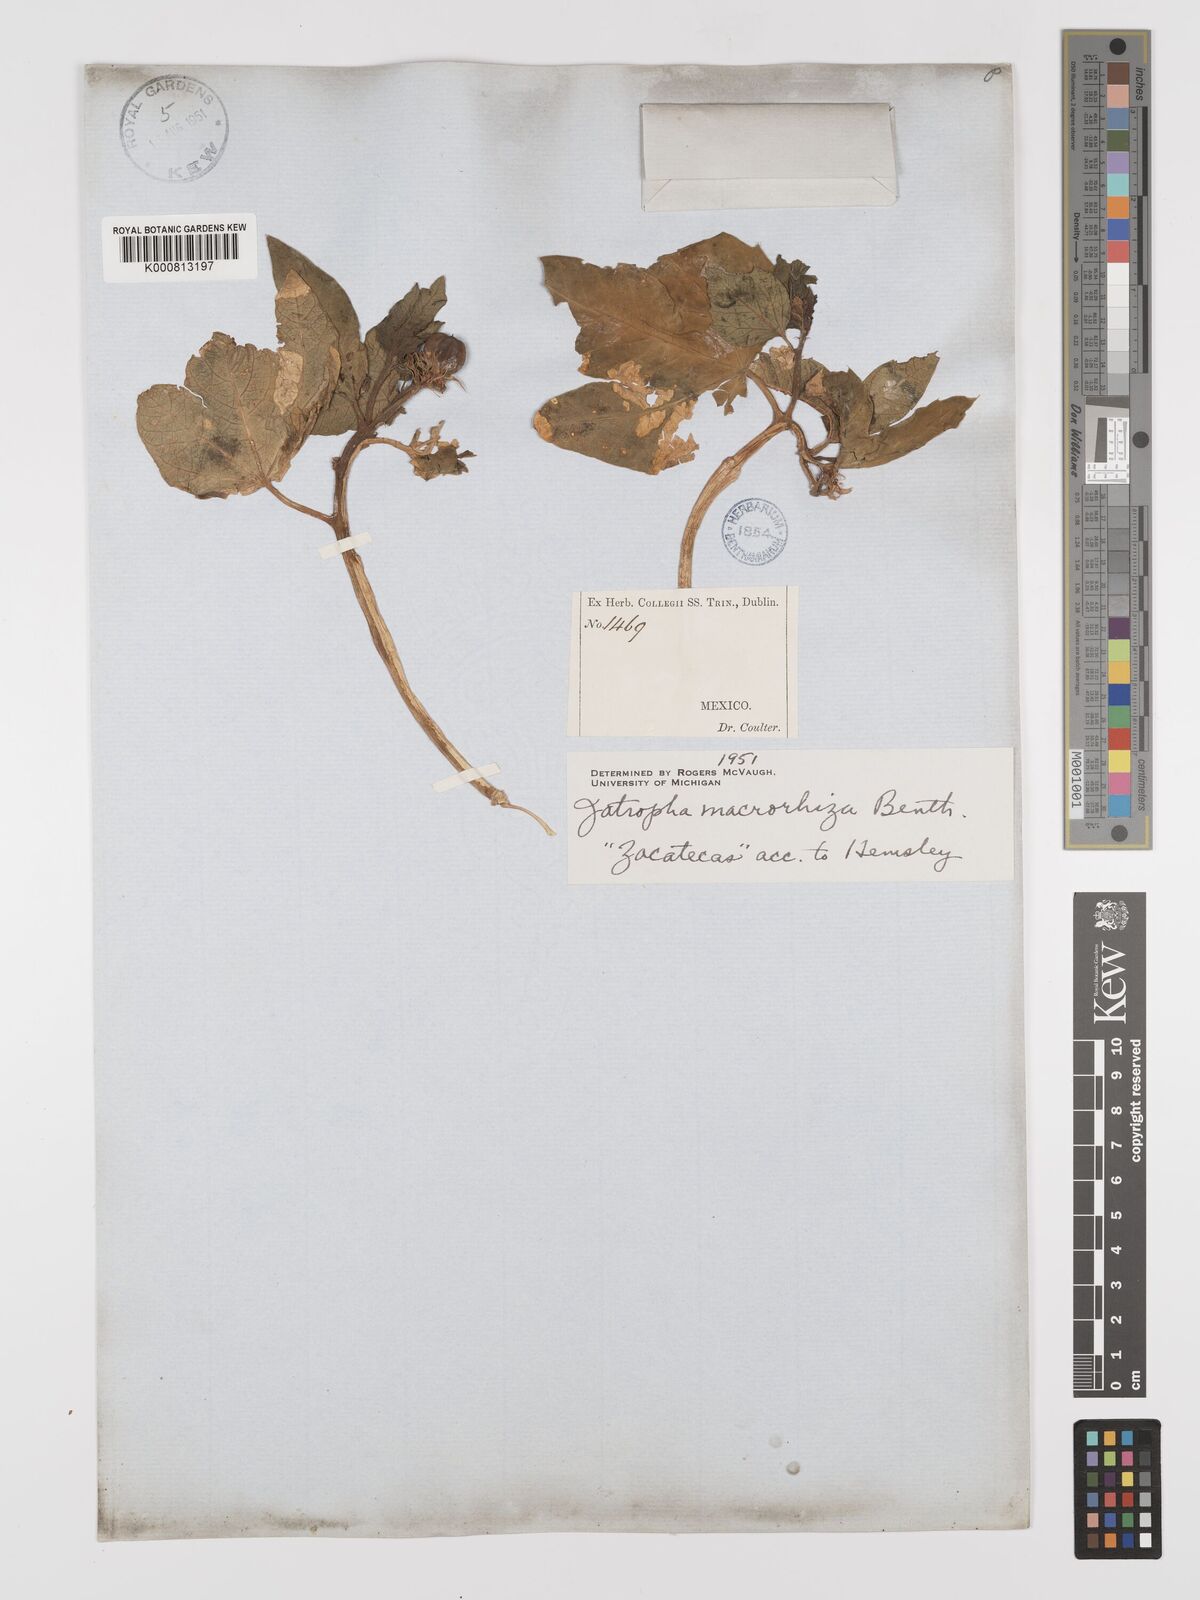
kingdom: Plantae
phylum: Tracheophyta
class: Magnoliopsida
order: Malpighiales
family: Euphorbiaceae
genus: Jatropha
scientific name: Jatropha macrorhiza
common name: Ragged nettlespurge
